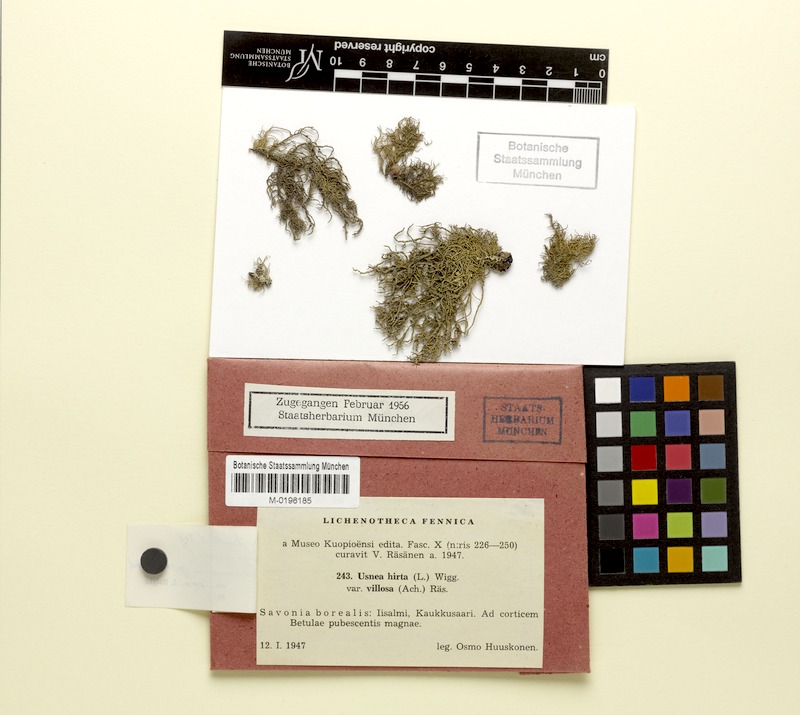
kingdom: Fungi
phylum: Ascomycota
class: Lecanoromycetes
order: Lecanorales
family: Parmeliaceae
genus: Usnea
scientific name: Usnea hirta
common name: Bristly beard lichen
